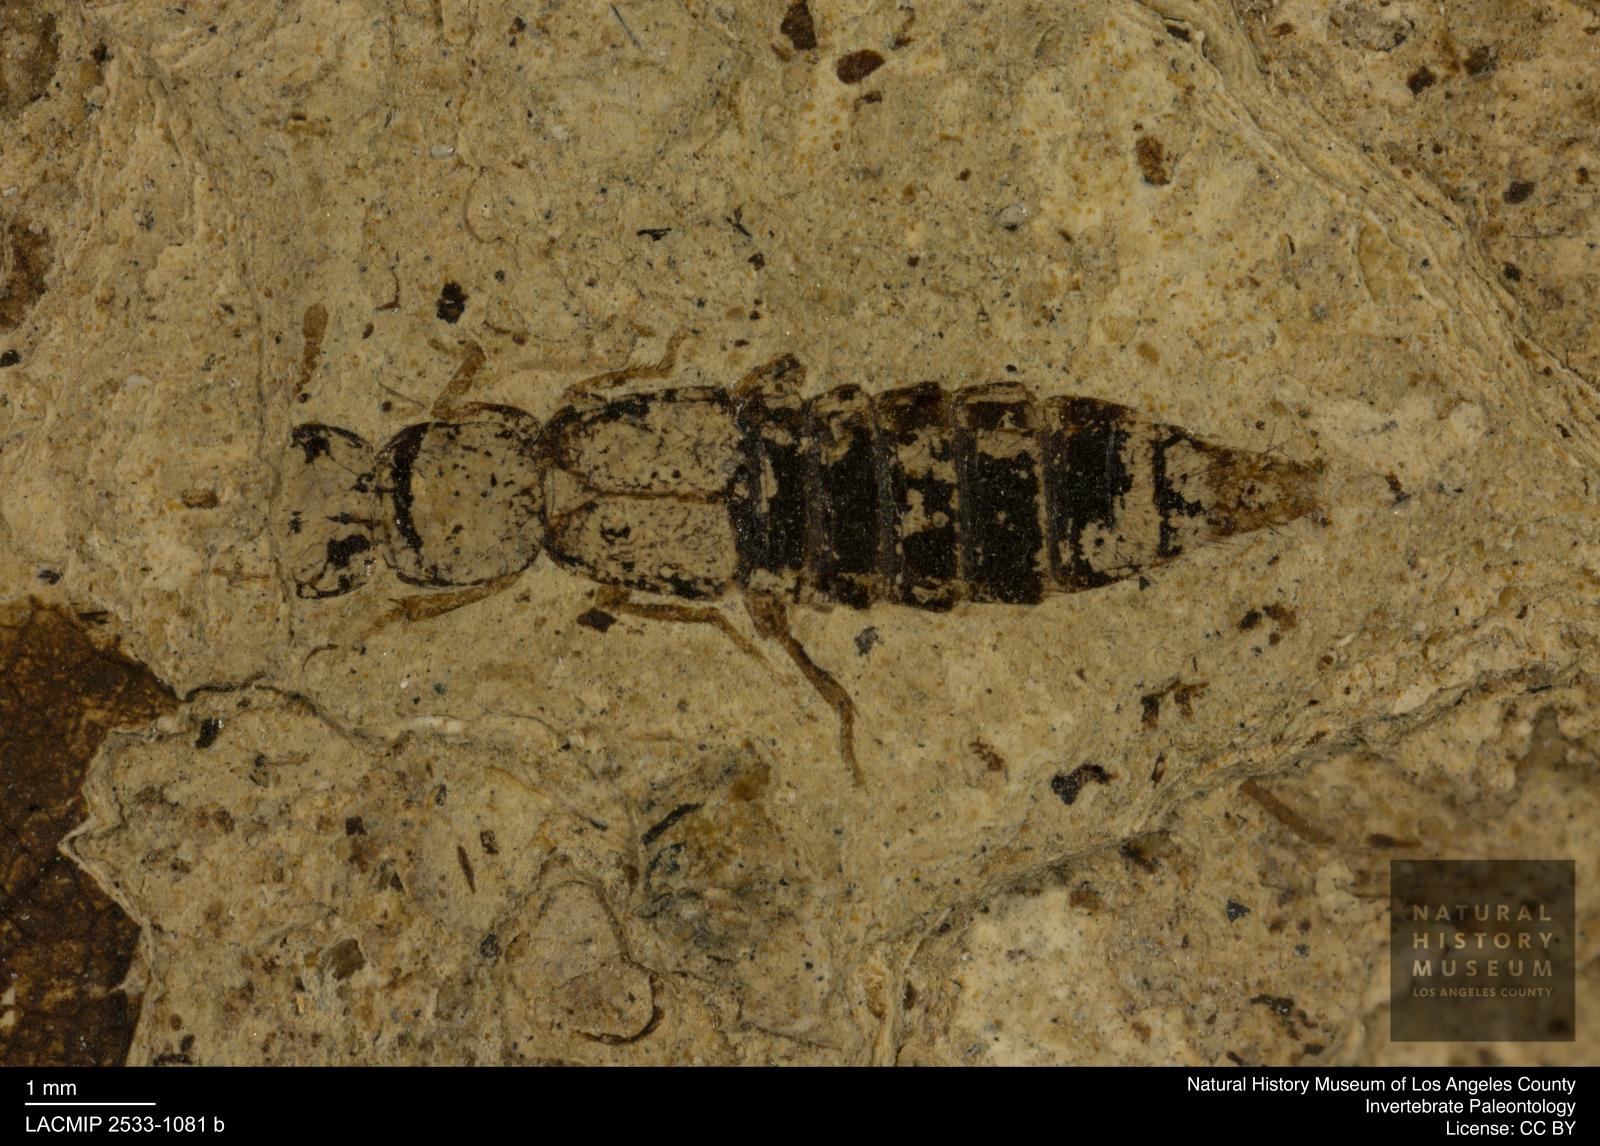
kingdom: Animalia
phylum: Arthropoda
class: Insecta
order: Coleoptera
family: Staphylinidae
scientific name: Staphylinidae
